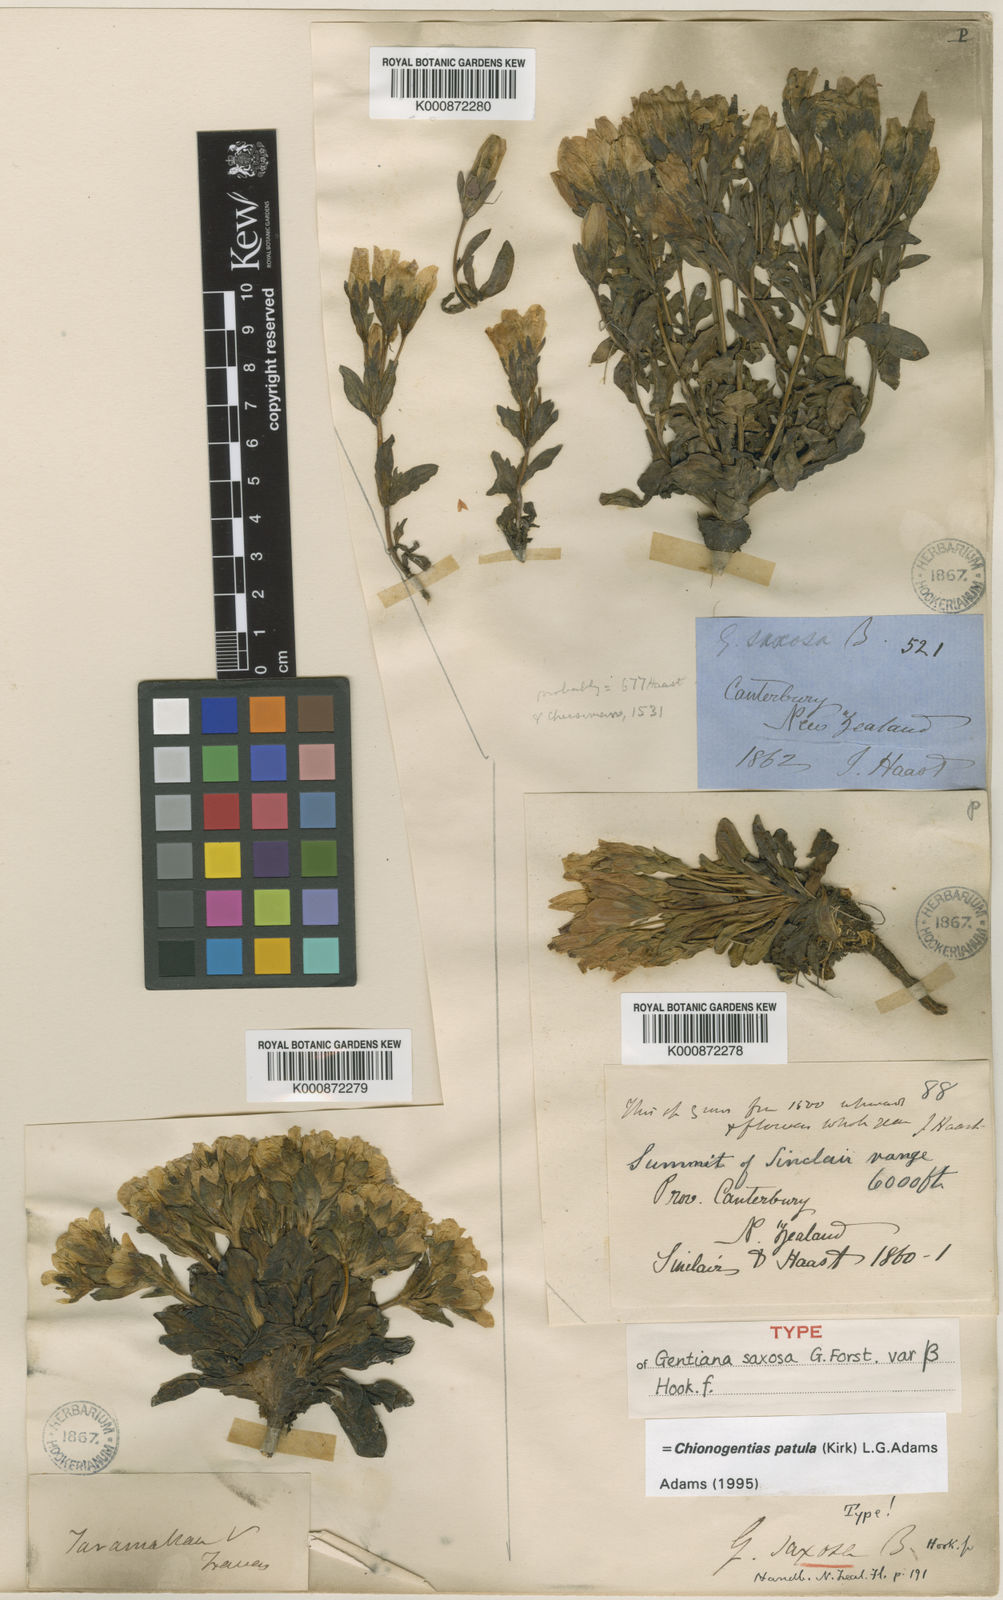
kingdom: Plantae
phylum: Tracheophyta
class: Magnoliopsida
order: Gentianales
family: Gentianaceae
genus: Gentianella
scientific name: Gentianella patula
